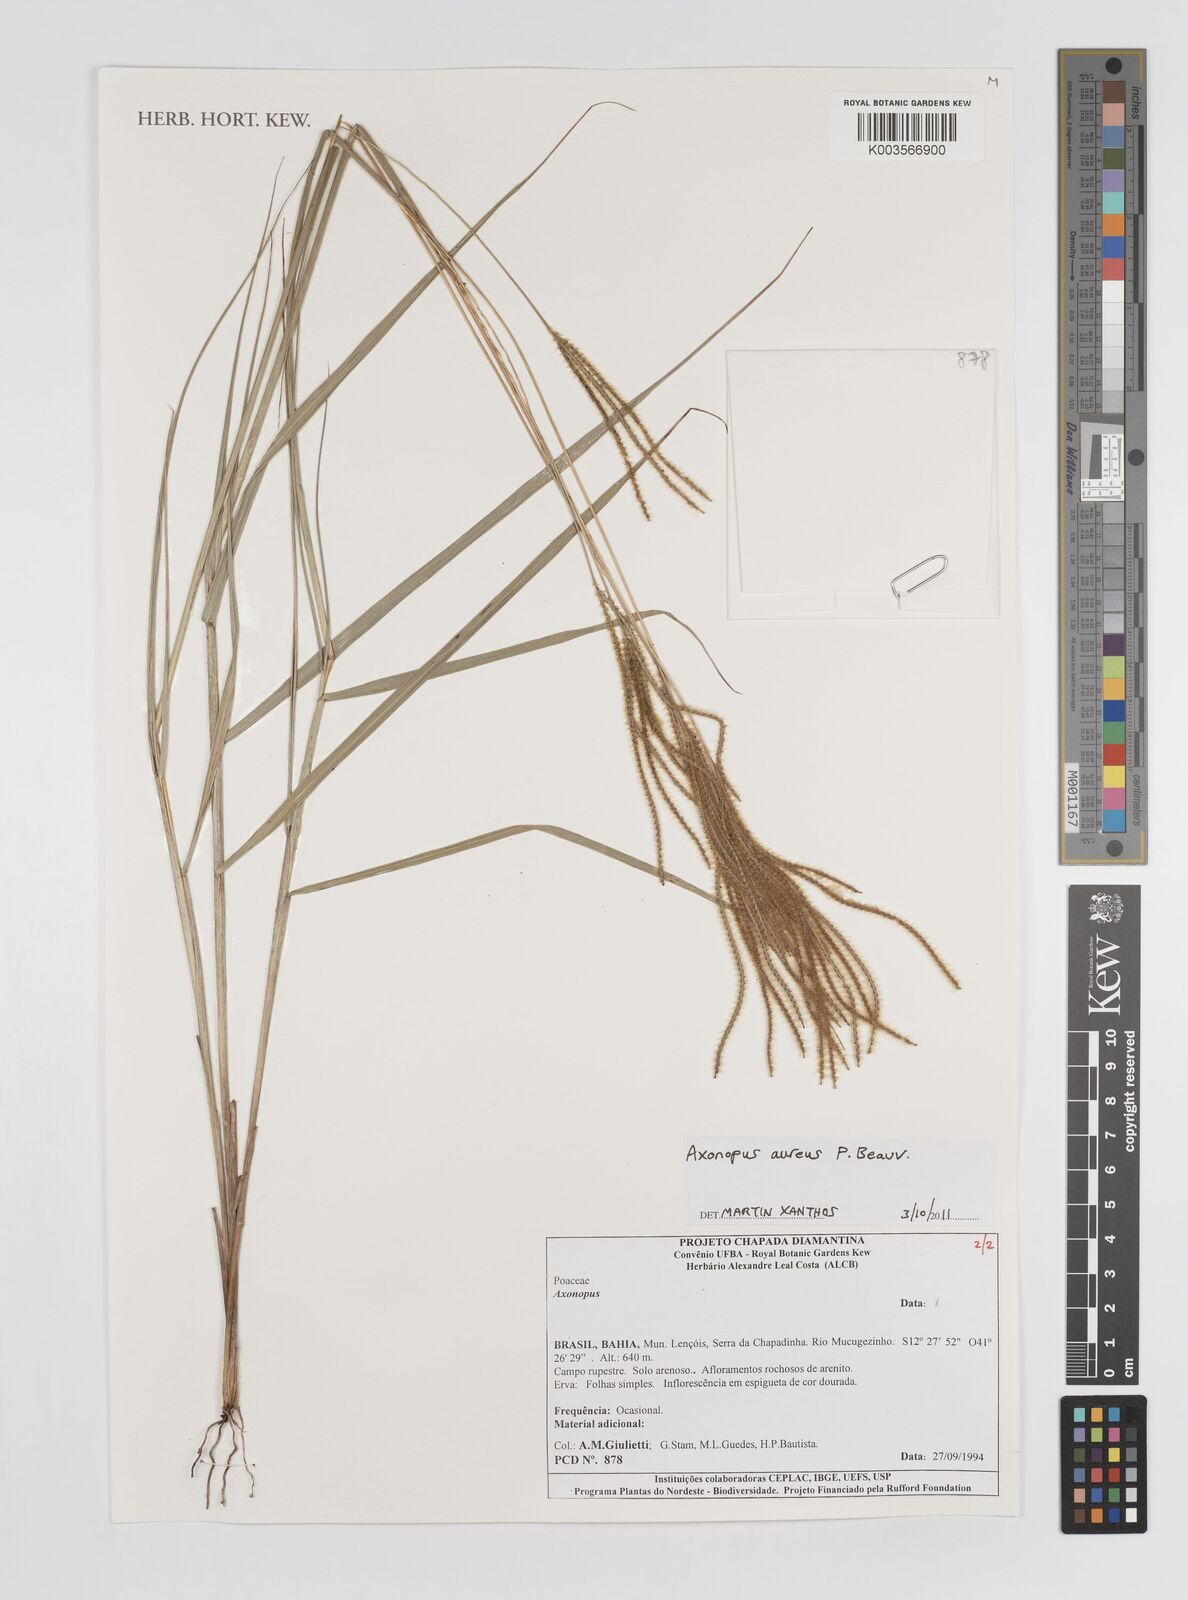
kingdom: Plantae
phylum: Tracheophyta
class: Liliopsida
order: Poales
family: Poaceae
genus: Axonopus
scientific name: Axonopus aureus
